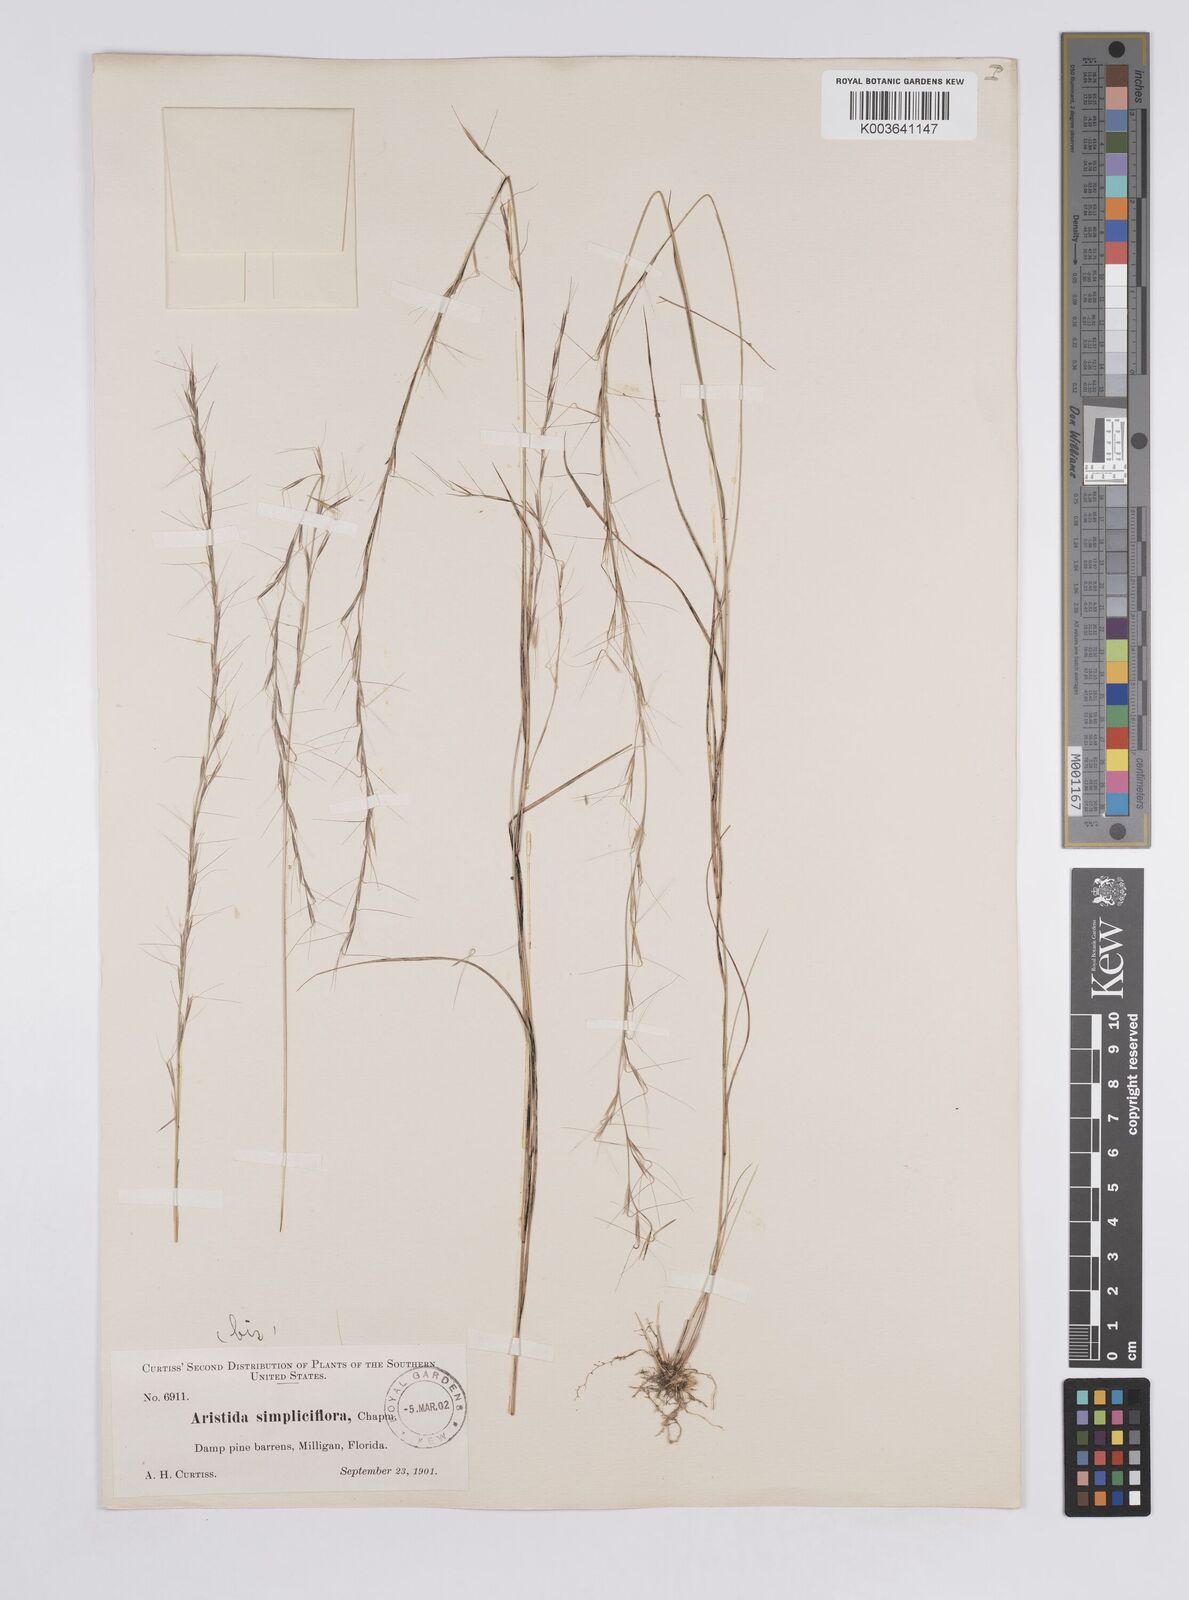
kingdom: Plantae
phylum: Tracheophyta
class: Liliopsida
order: Poales
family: Poaceae
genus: Aristida
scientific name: Aristida simpliciflora
